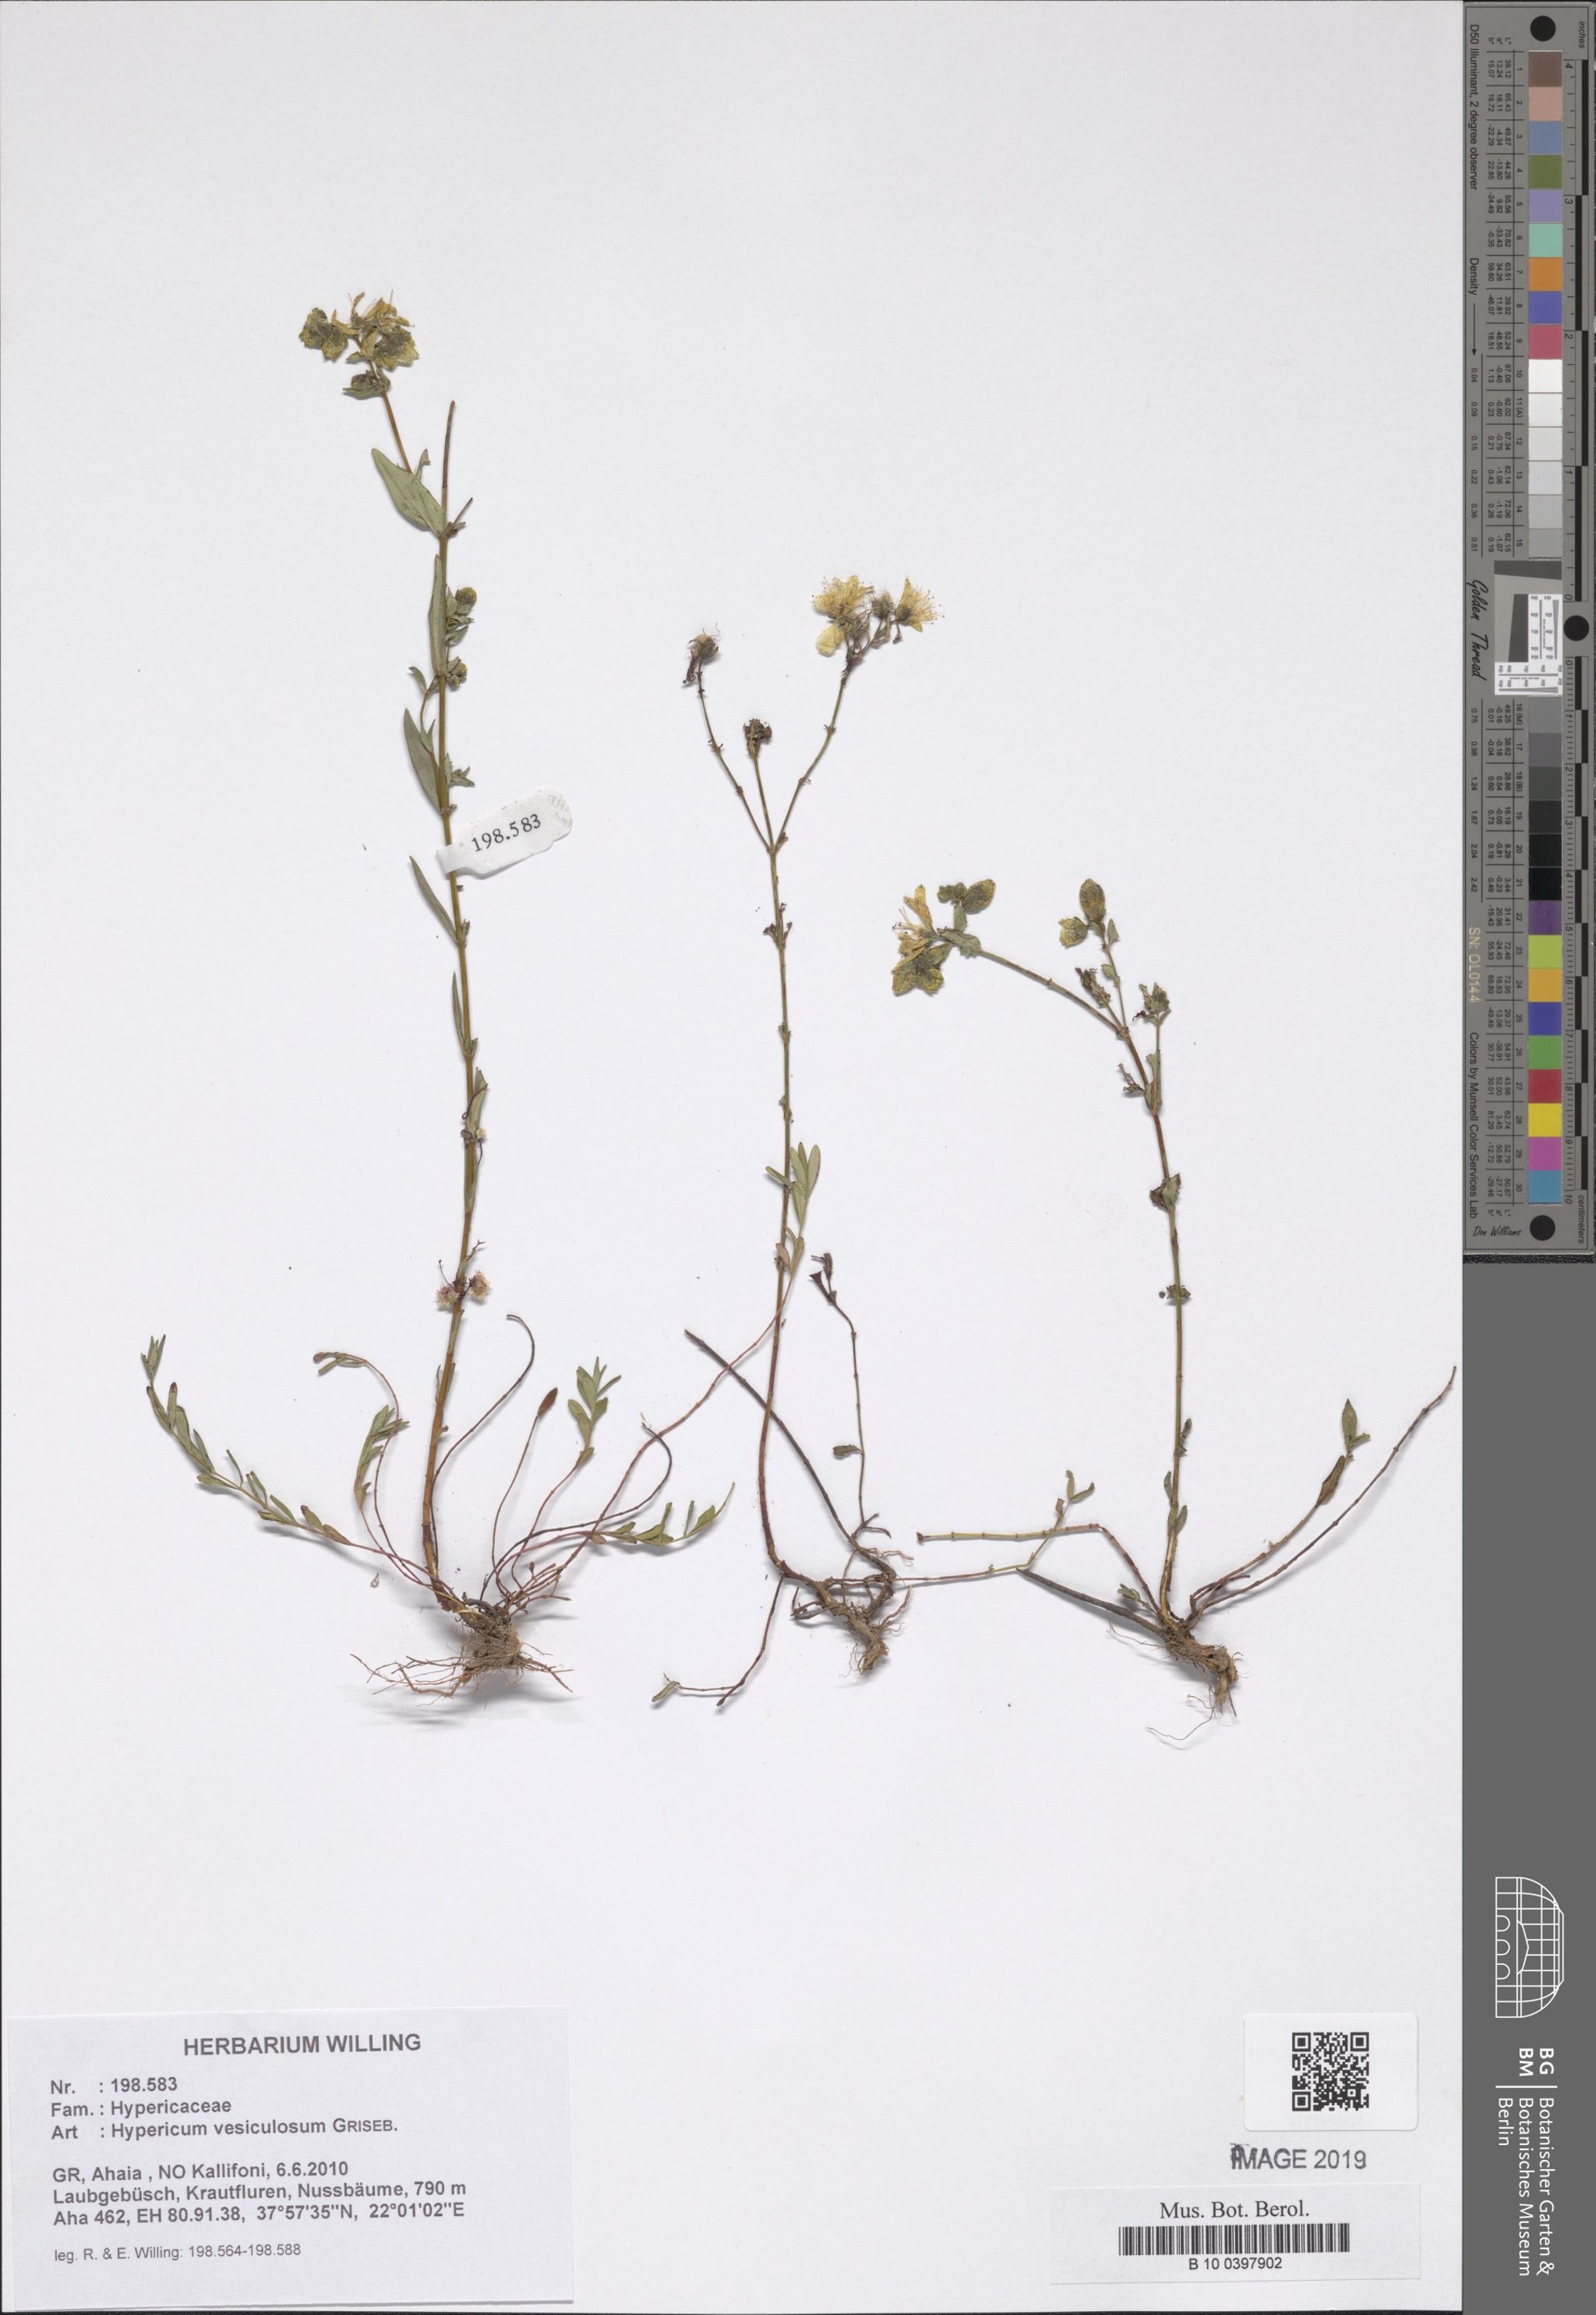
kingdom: Plantae
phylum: Tracheophyta
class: Magnoliopsida
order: Malpighiales
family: Hypericaceae
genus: Hypericum
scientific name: Hypericum vesiculosum
